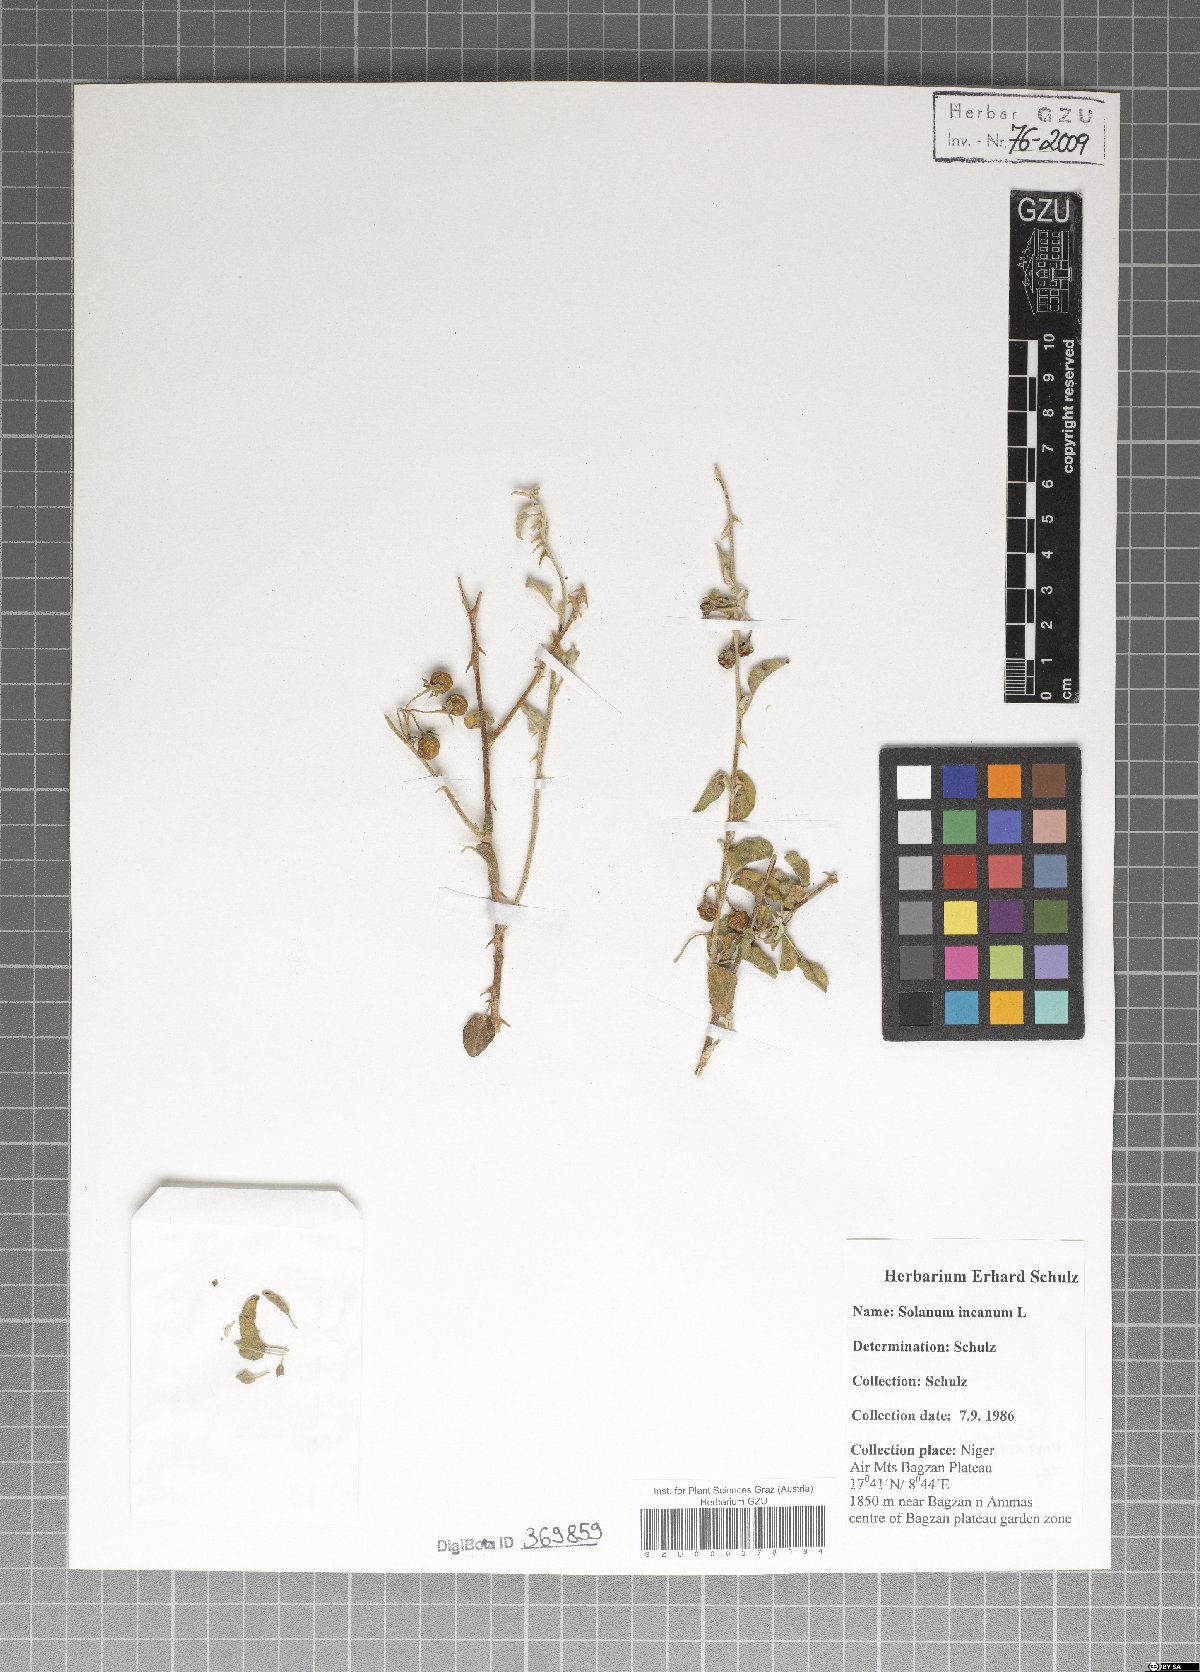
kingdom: Plantae
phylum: Tracheophyta
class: Magnoliopsida
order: Solanales
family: Solanaceae
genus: Solanum
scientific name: Solanum incanum
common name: Bitter apple
